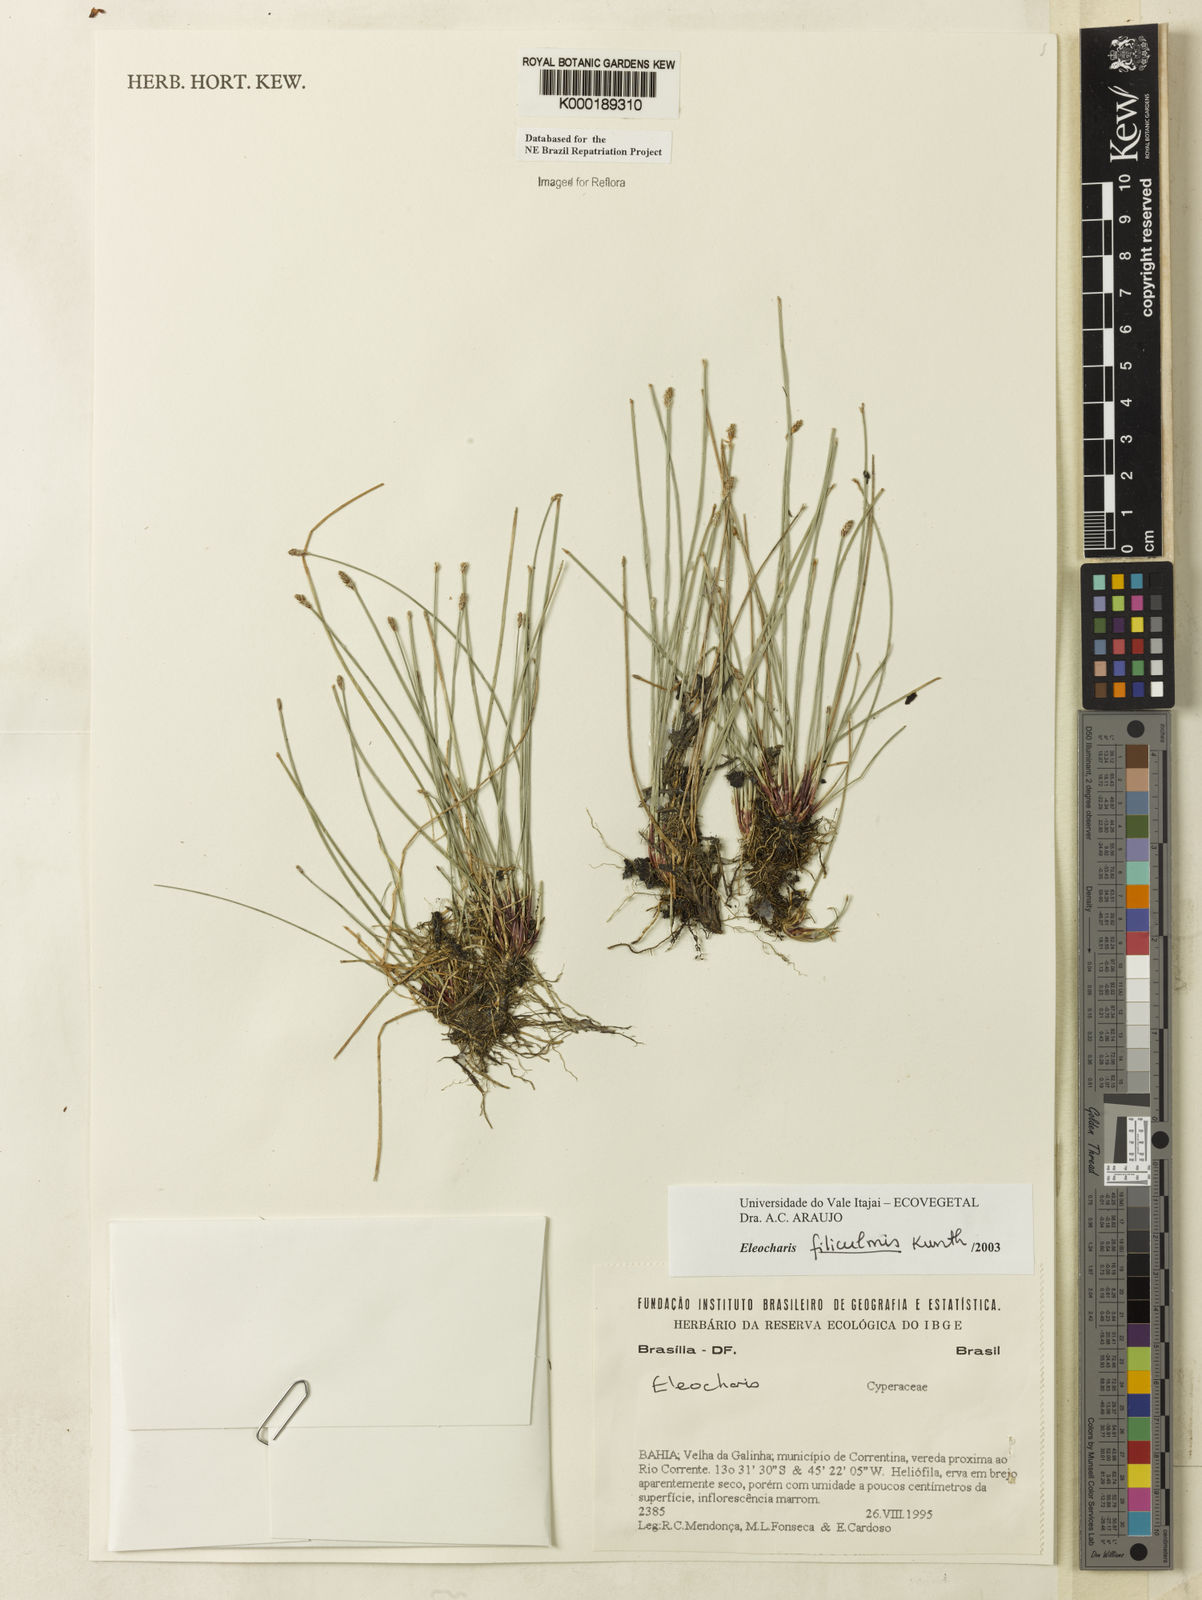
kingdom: Plantae
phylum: Tracheophyta
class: Liliopsida
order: Poales
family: Cyperaceae
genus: Eleocharis
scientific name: Eleocharis filiculmis
